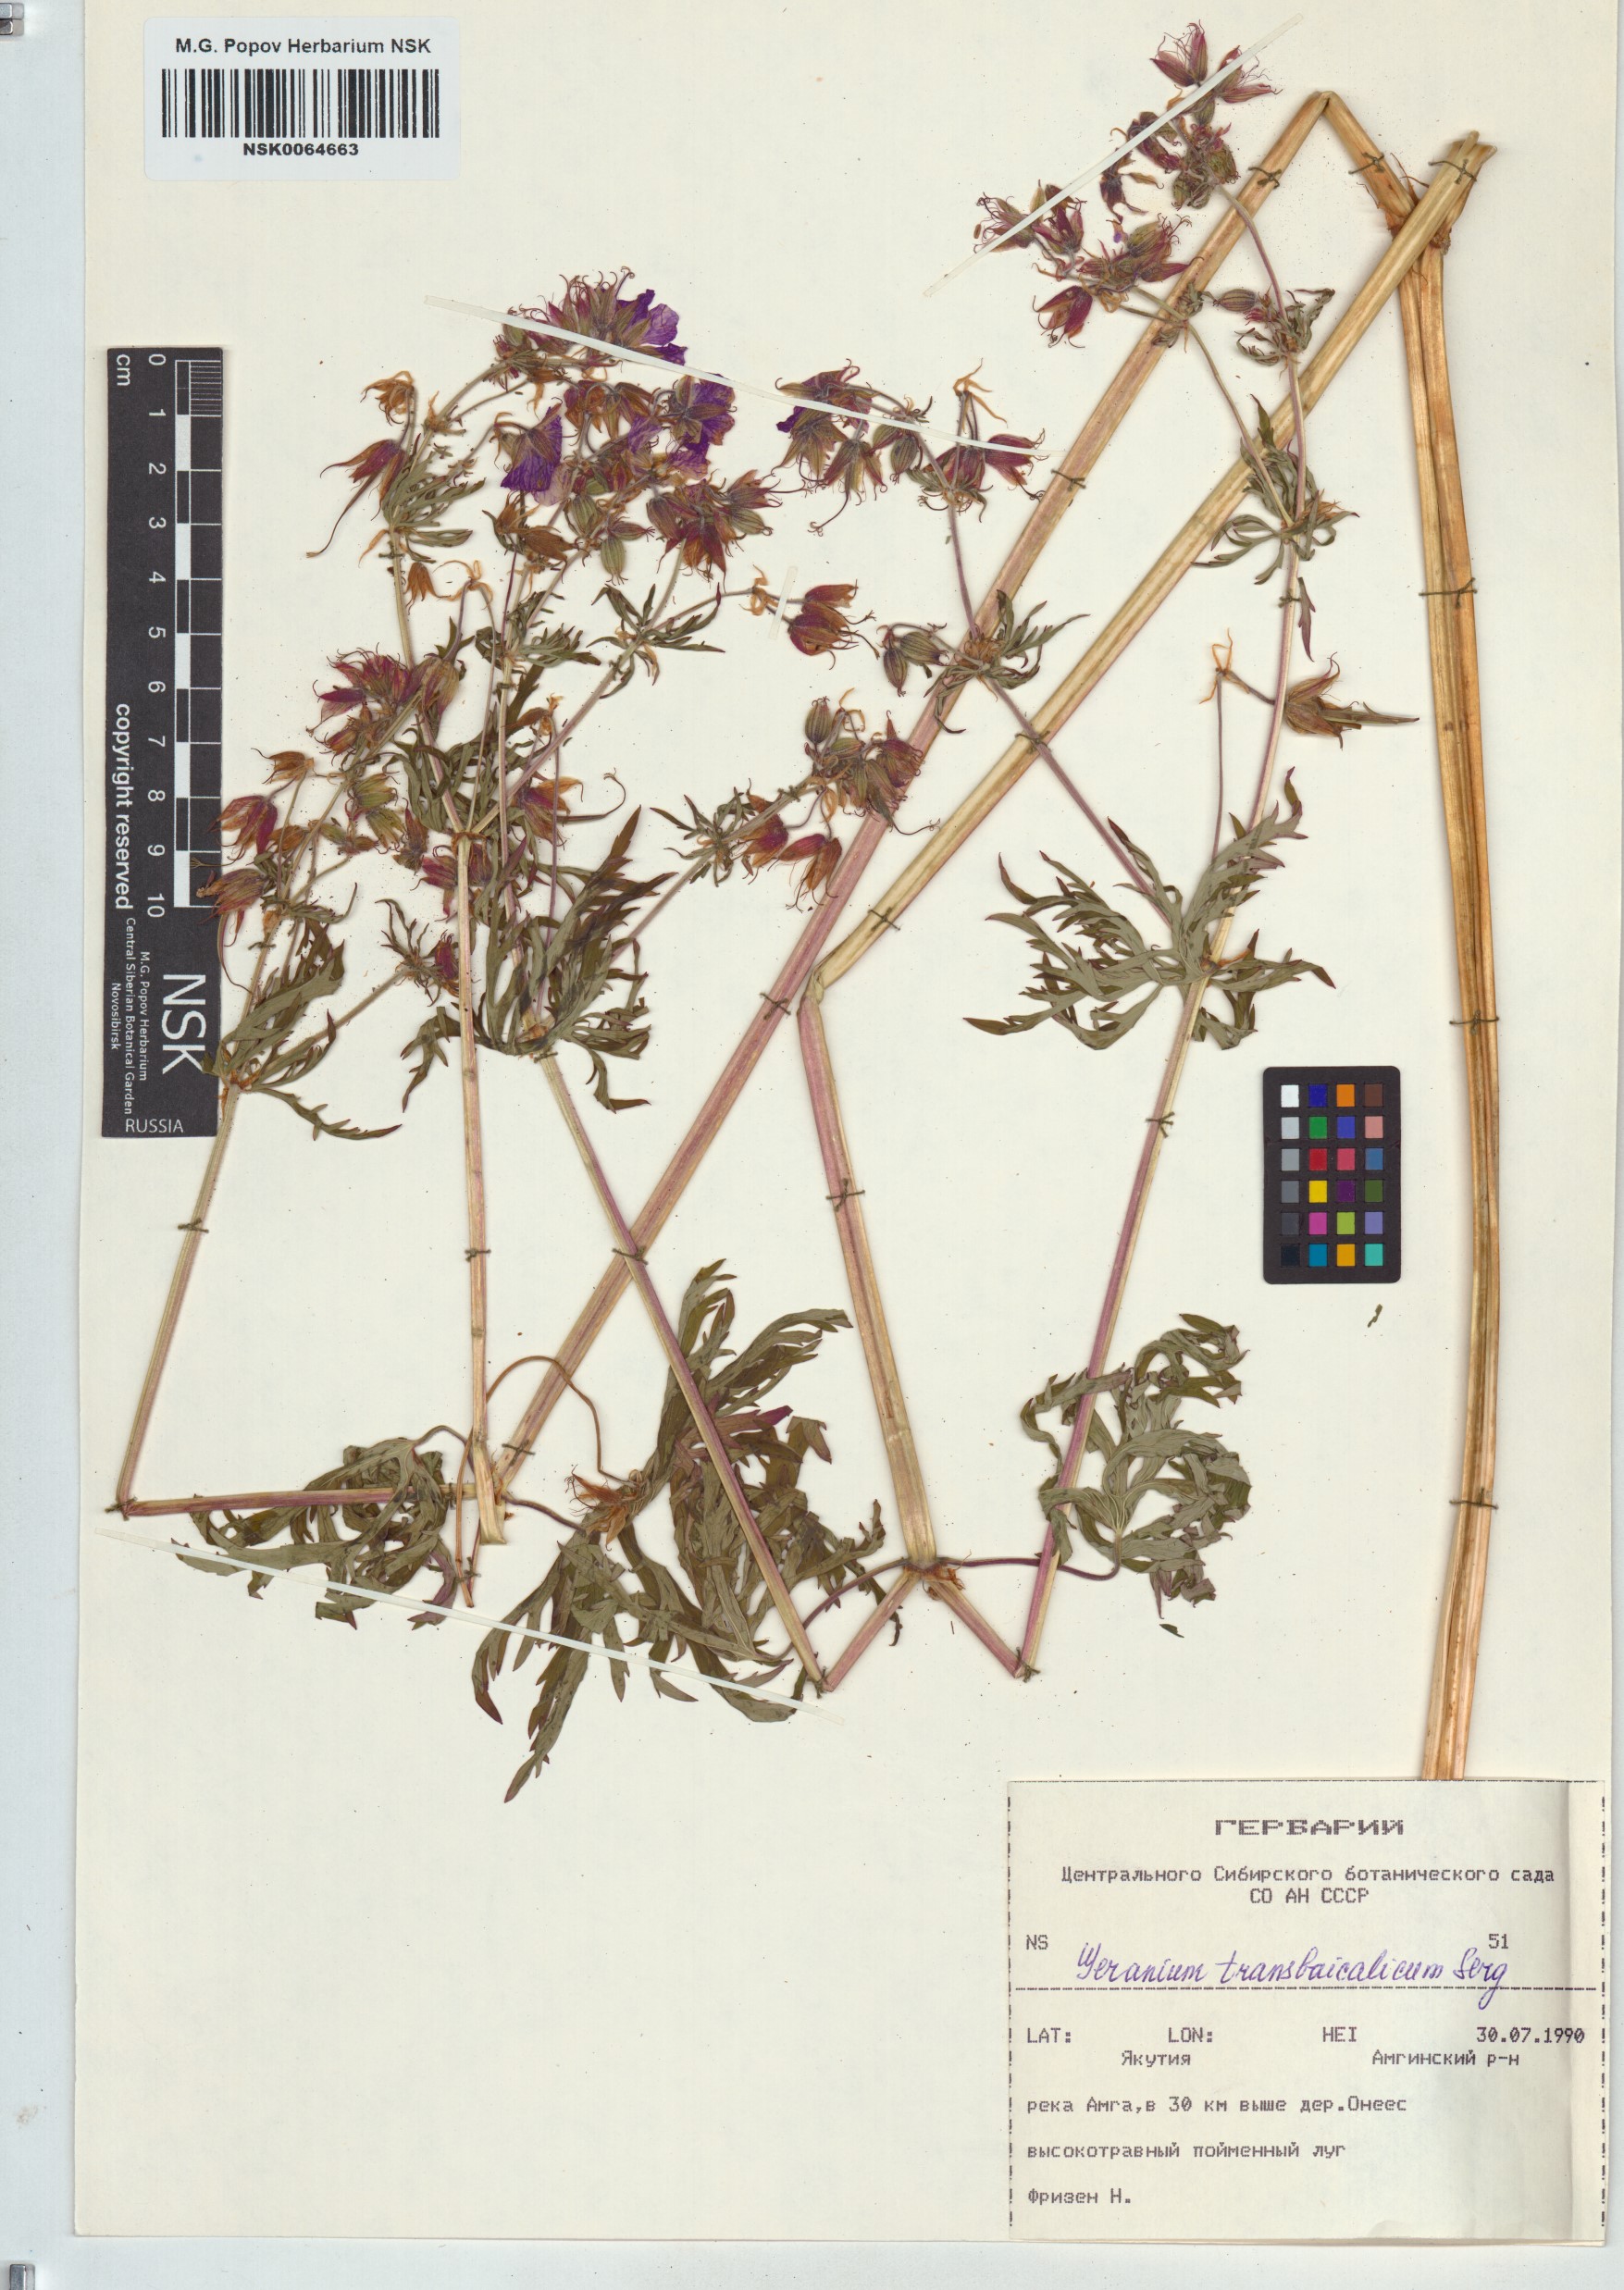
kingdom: Plantae
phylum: Tracheophyta
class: Magnoliopsida
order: Geraniales
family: Geraniaceae
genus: Geranium
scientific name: Geranium pratense
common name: Meadow crane's-bill
